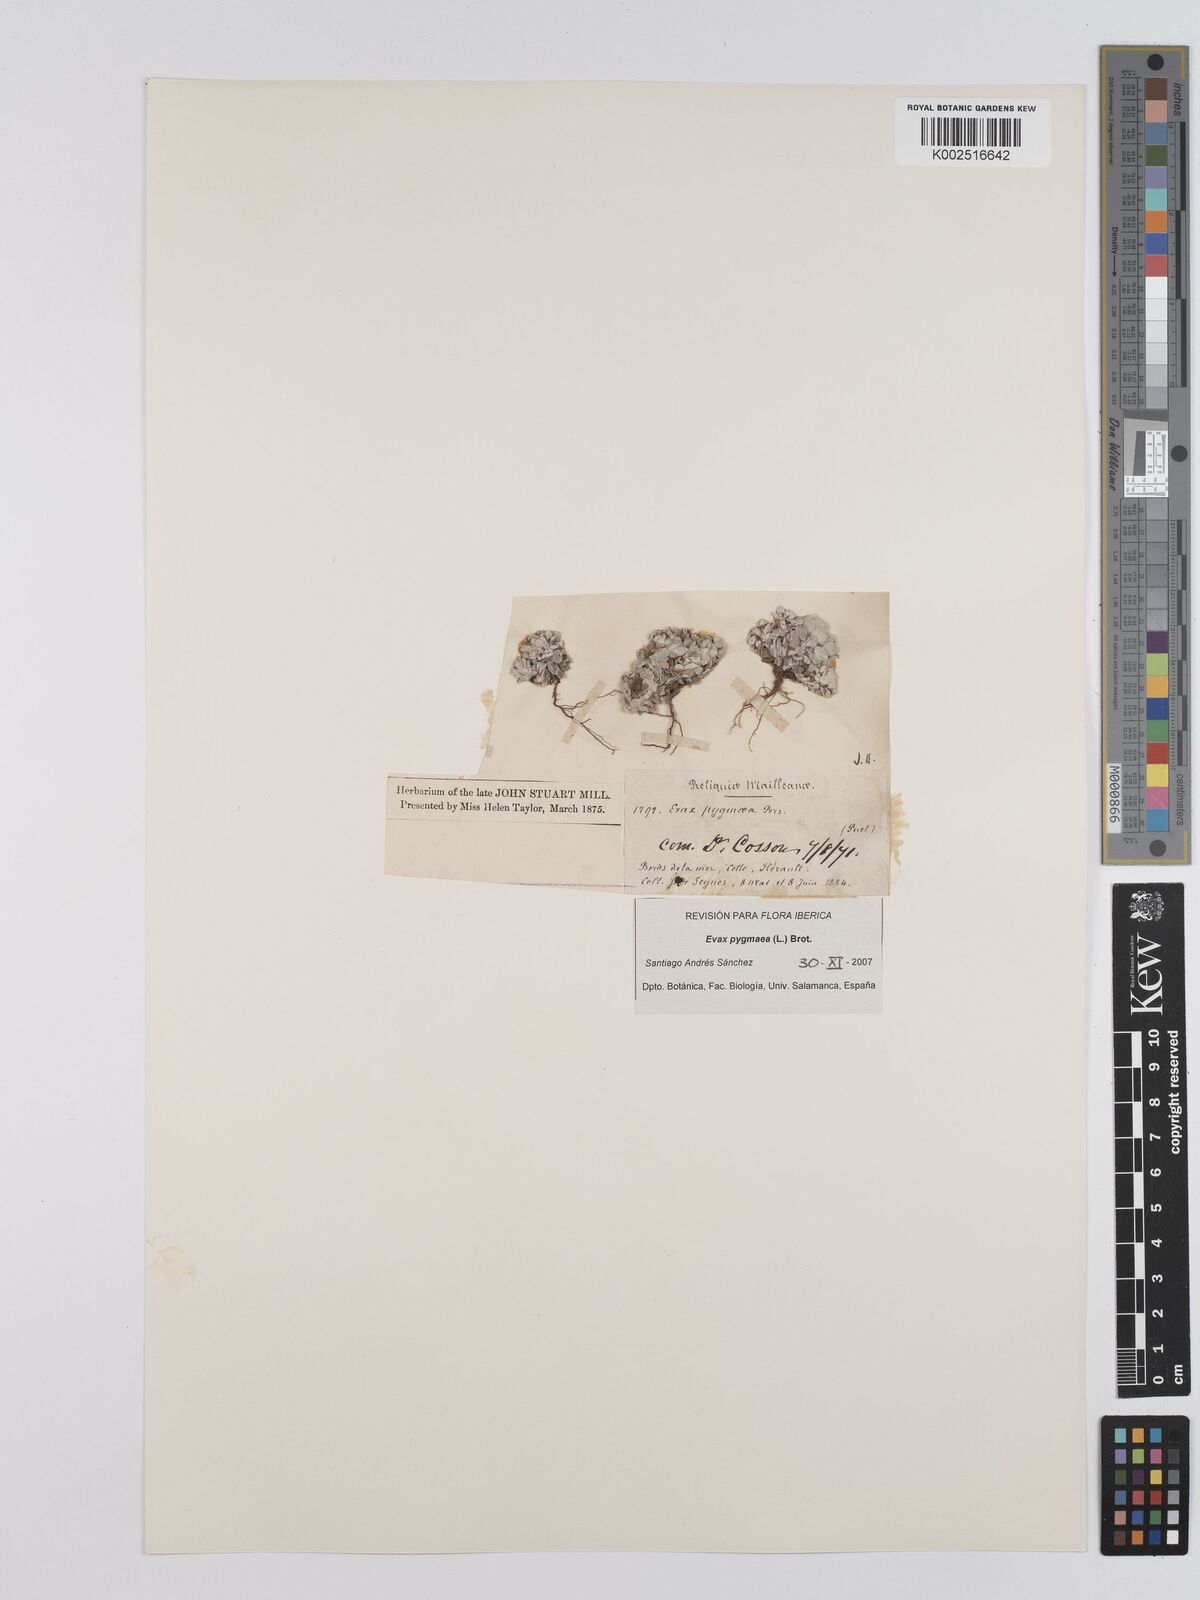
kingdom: Plantae
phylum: Tracheophyta
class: Magnoliopsida
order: Asterales
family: Asteraceae
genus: Filago
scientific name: Filago pygmaea
